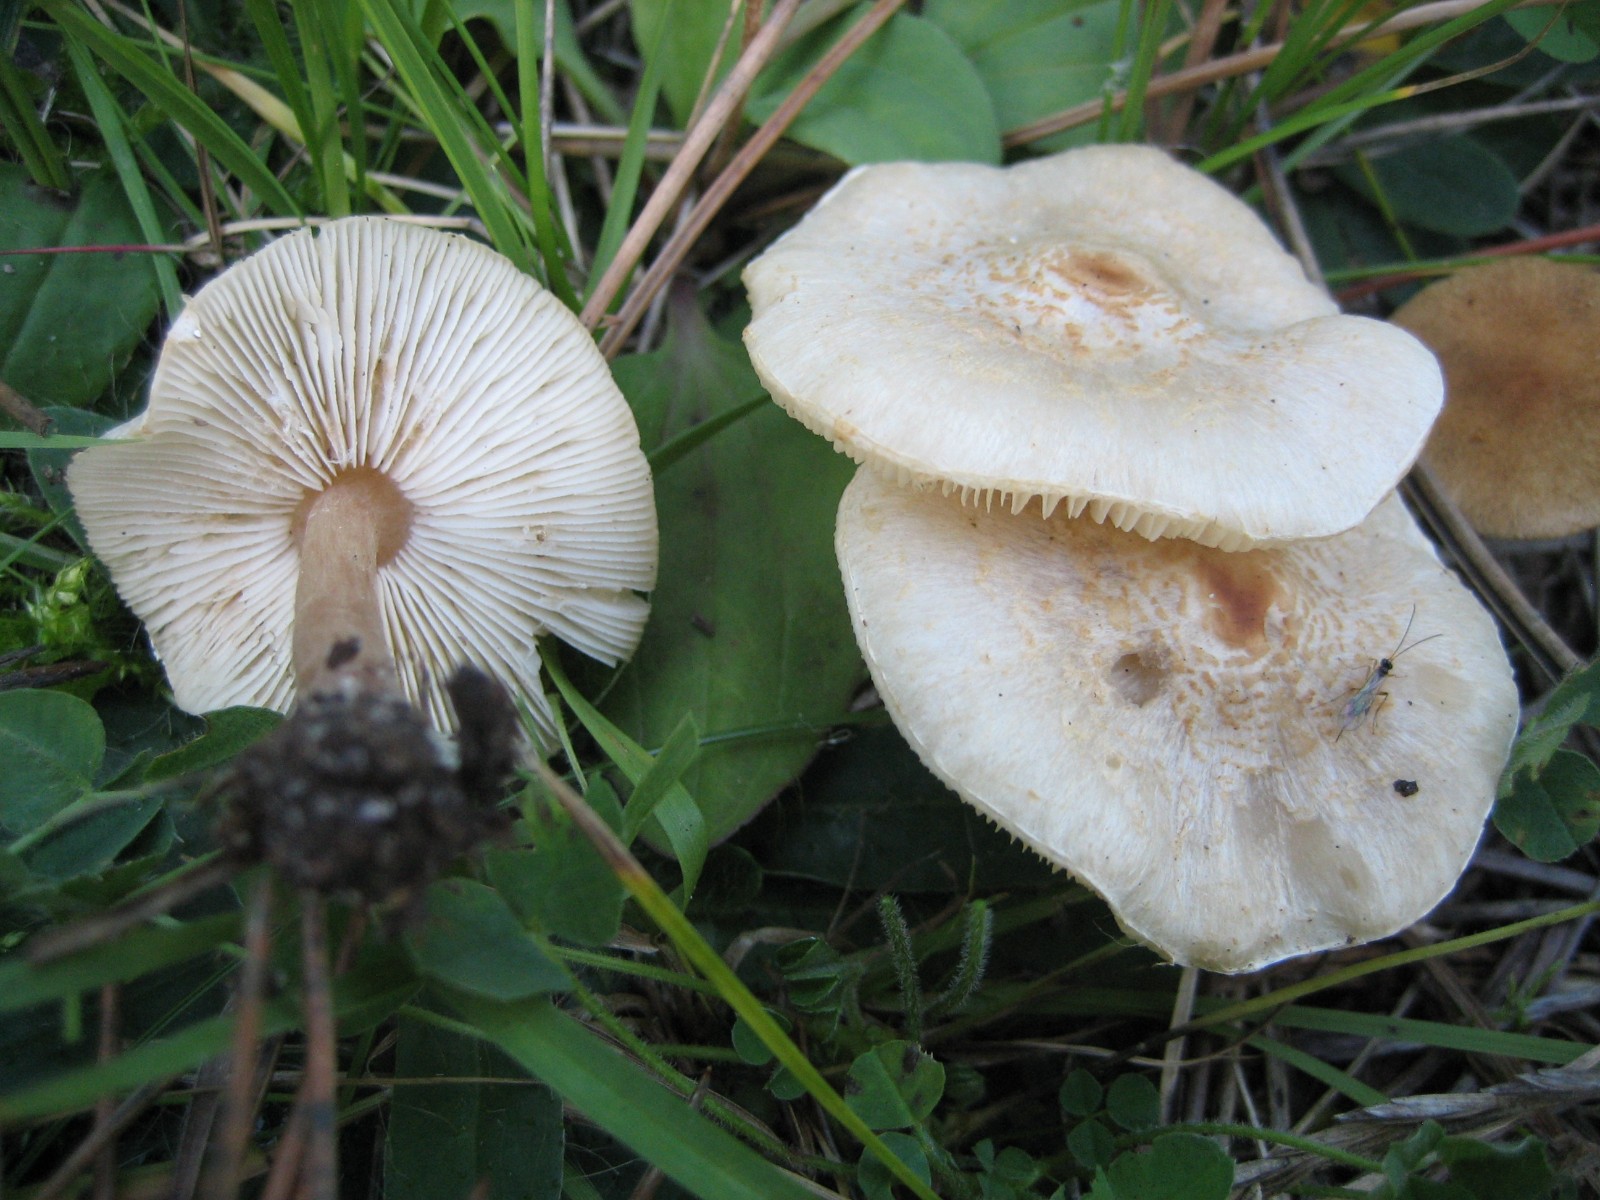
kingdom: Fungi
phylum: Basidiomycota
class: Agaricomycetes
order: Agaricales
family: Agaricaceae
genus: Lepiota
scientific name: Lepiota cristata
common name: stinkende parasolhat
